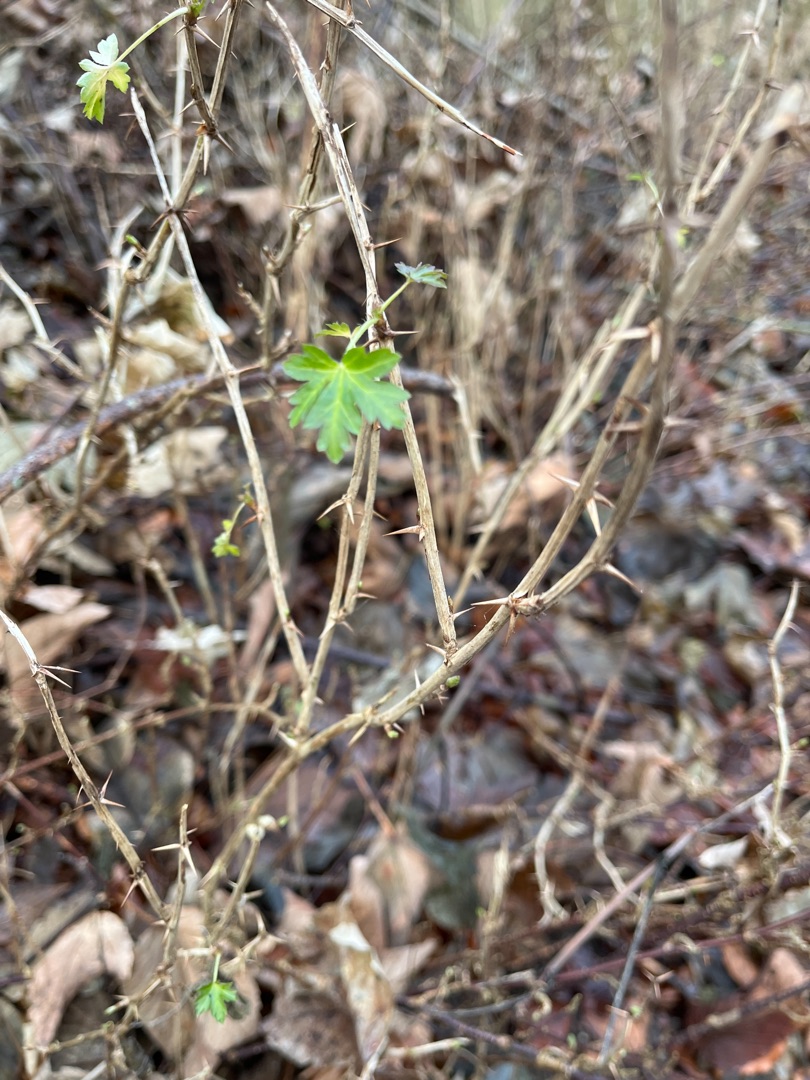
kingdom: Plantae
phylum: Tracheophyta
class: Magnoliopsida
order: Saxifragales
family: Grossulariaceae
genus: Ribes
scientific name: Ribes uva-crispa
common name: Stikkelsbær
